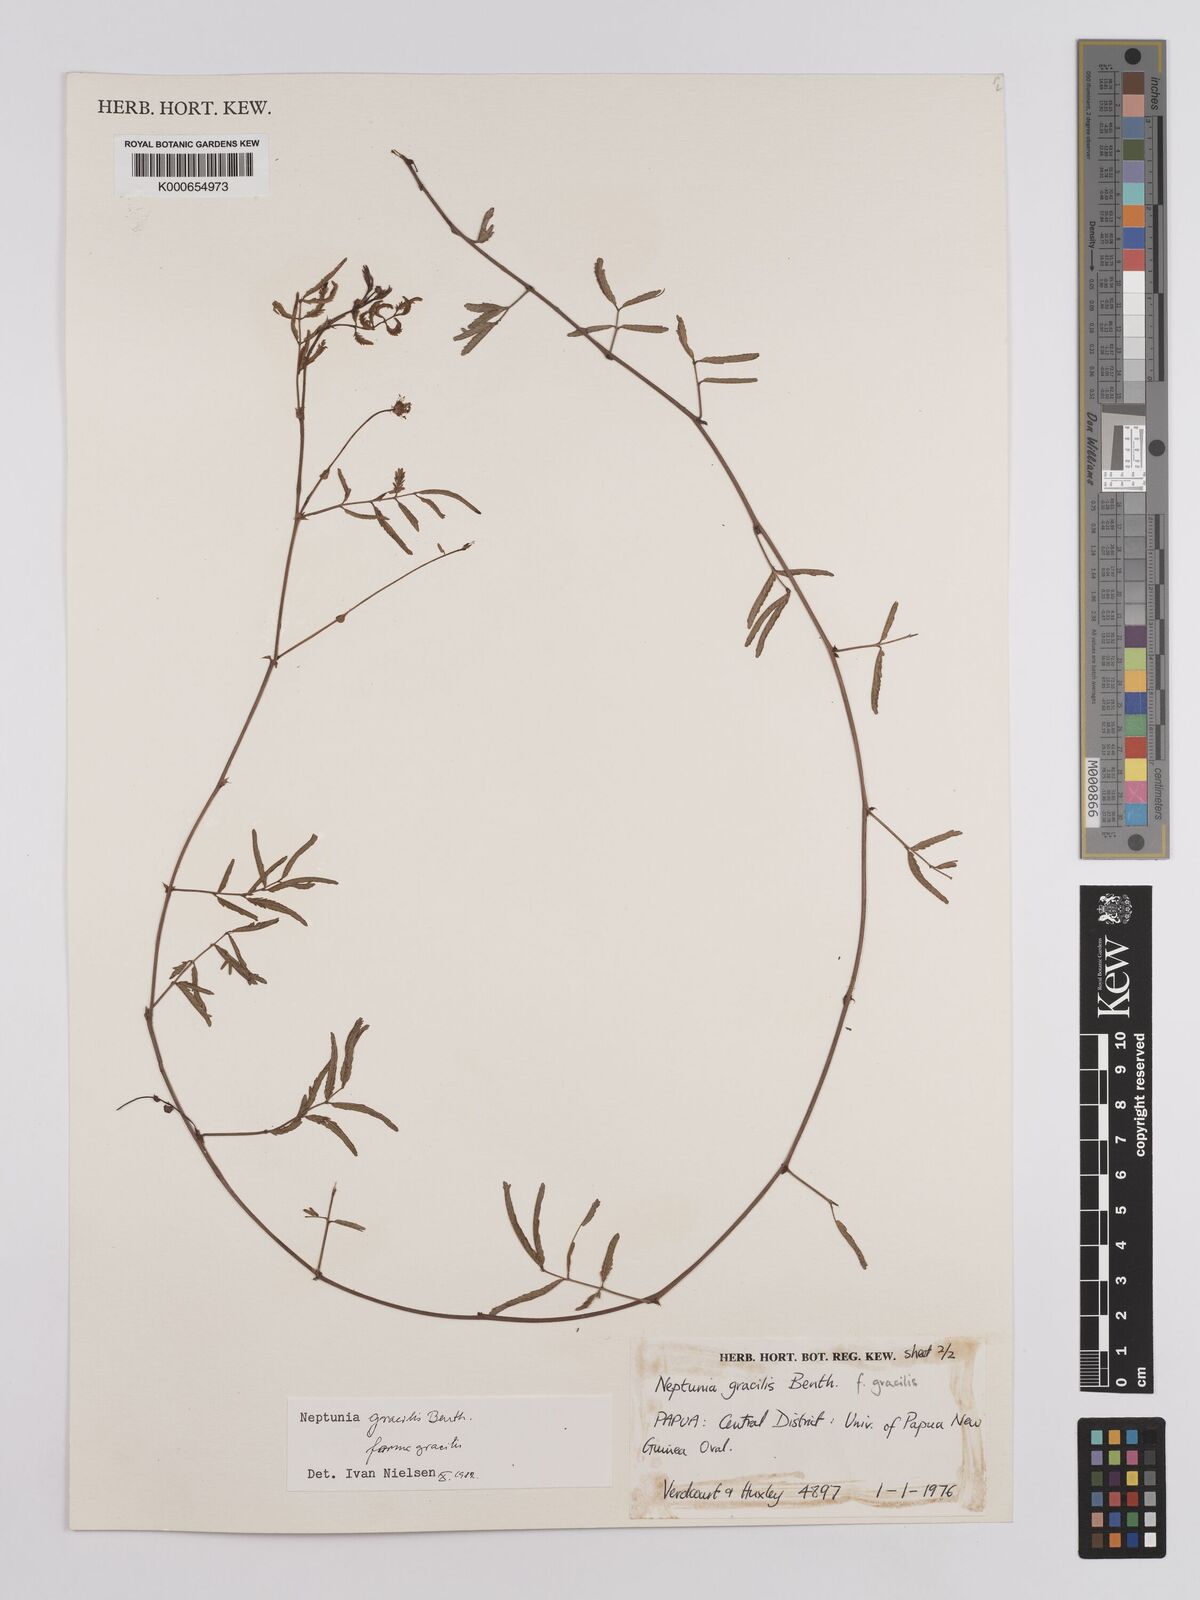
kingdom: Plantae
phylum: Tracheophyta
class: Magnoliopsida
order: Fabales
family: Fabaceae
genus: Leucaena
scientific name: Leucaena leucocephala
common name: White leadtree
